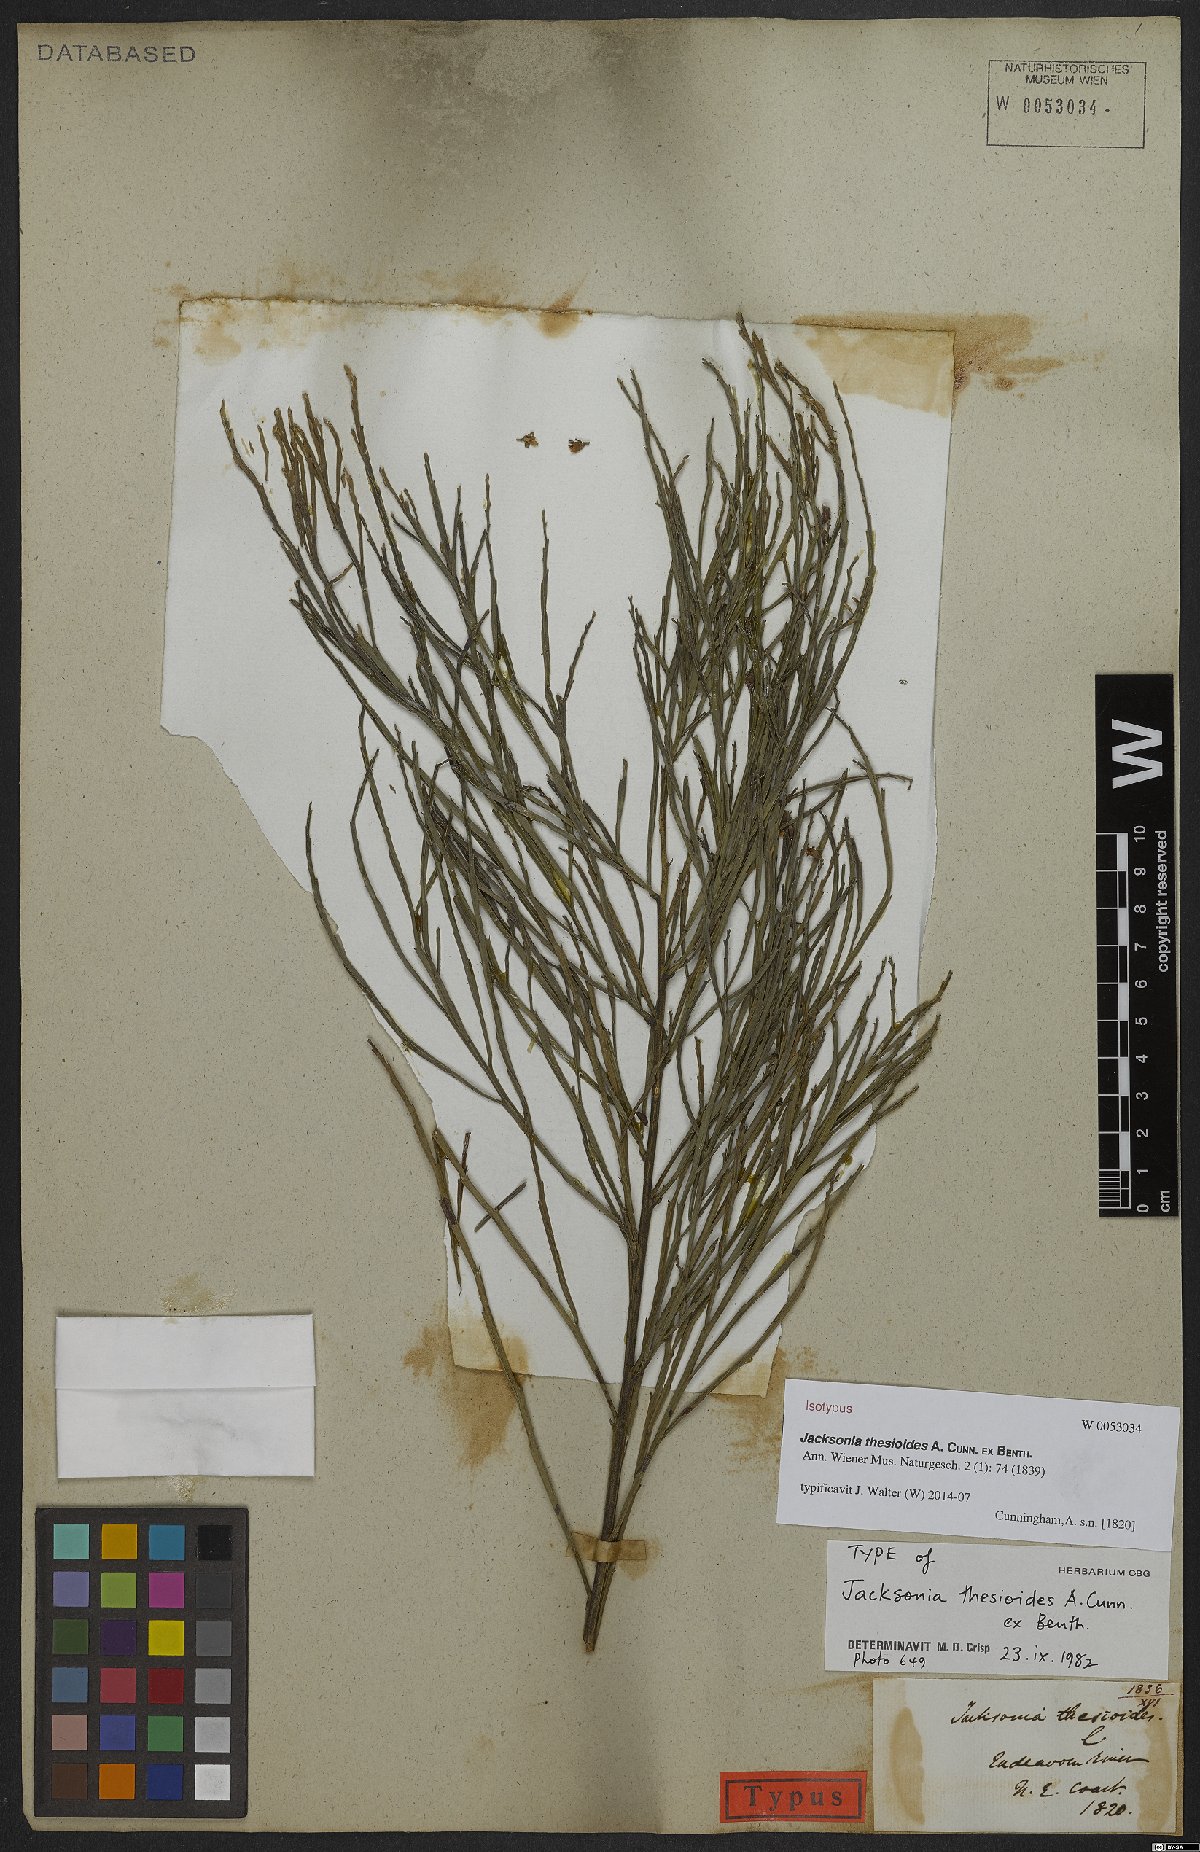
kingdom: Plantae
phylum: Tracheophyta
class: Magnoliopsida
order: Fabales
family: Fabaceae
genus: Jacksonia
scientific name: Jacksonia thesioides
